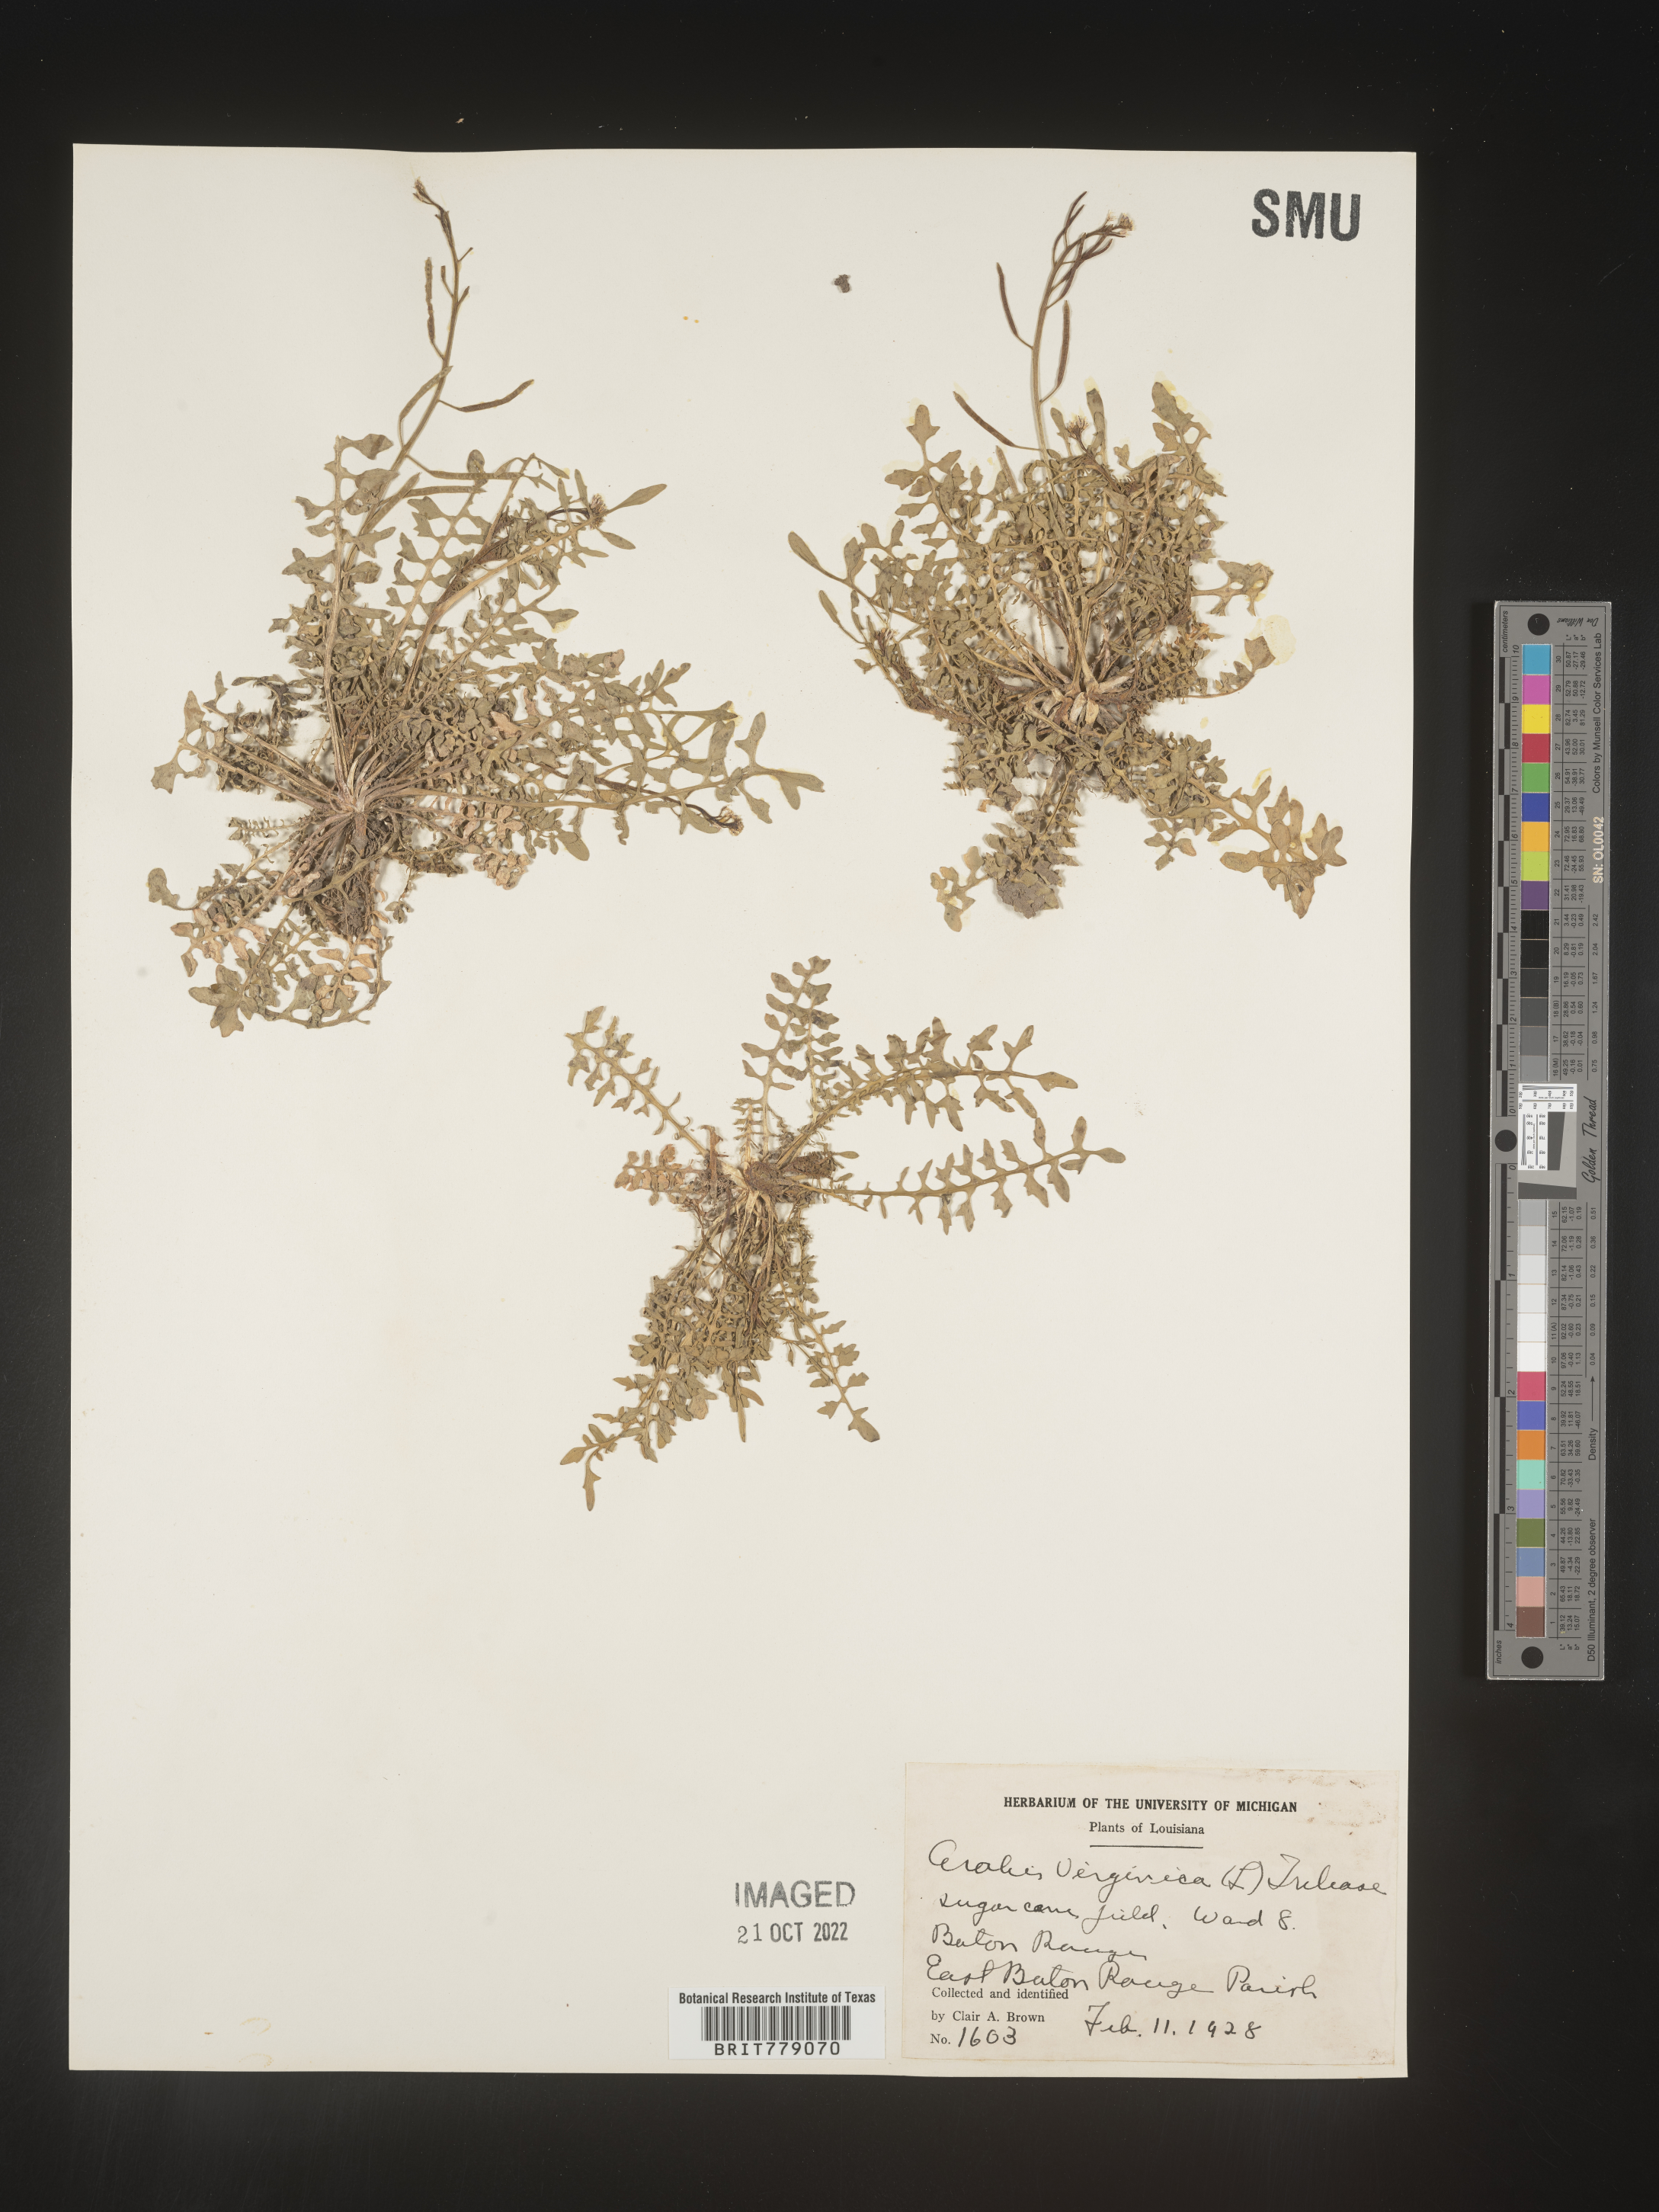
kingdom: Plantae
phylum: Tracheophyta
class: Magnoliopsida
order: Brassicales
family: Brassicaceae
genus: Sibara
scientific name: Sibara
